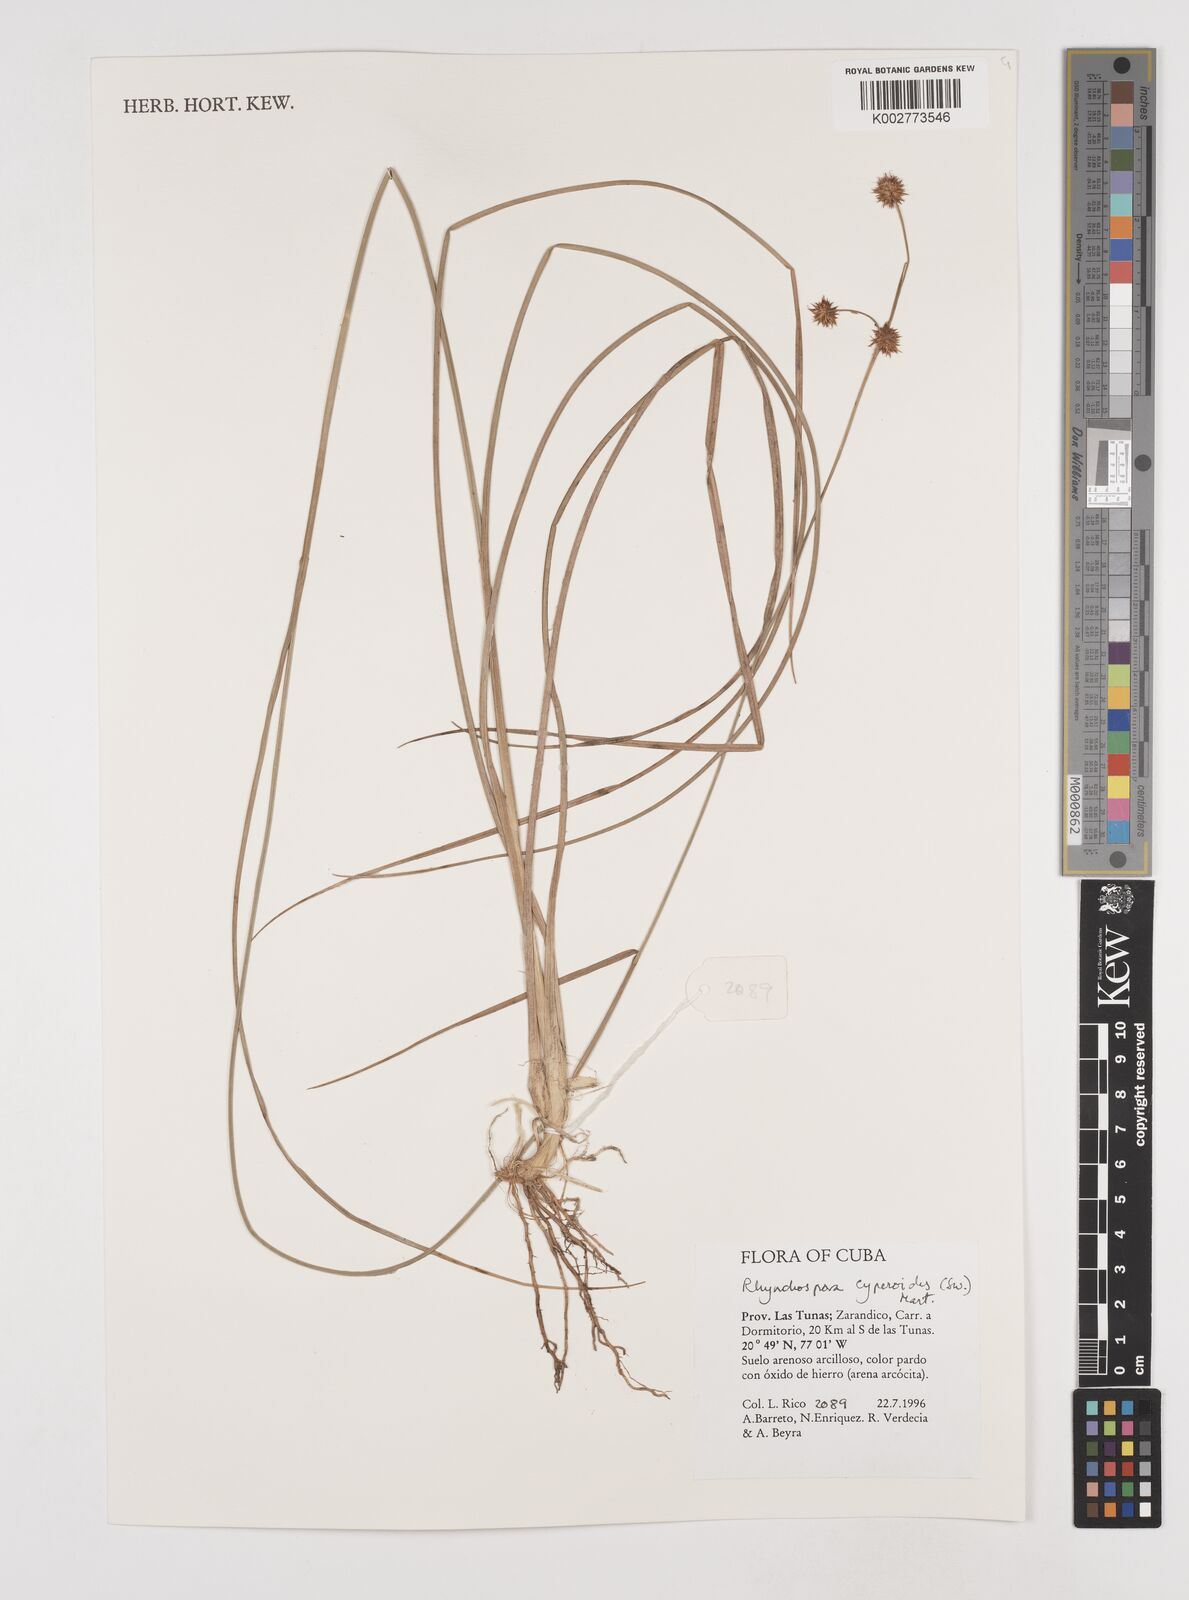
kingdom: Plantae
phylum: Tracheophyta
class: Liliopsida
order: Poales
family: Cyperaceae
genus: Rhynchospora
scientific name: Rhynchospora holoschoenoides
